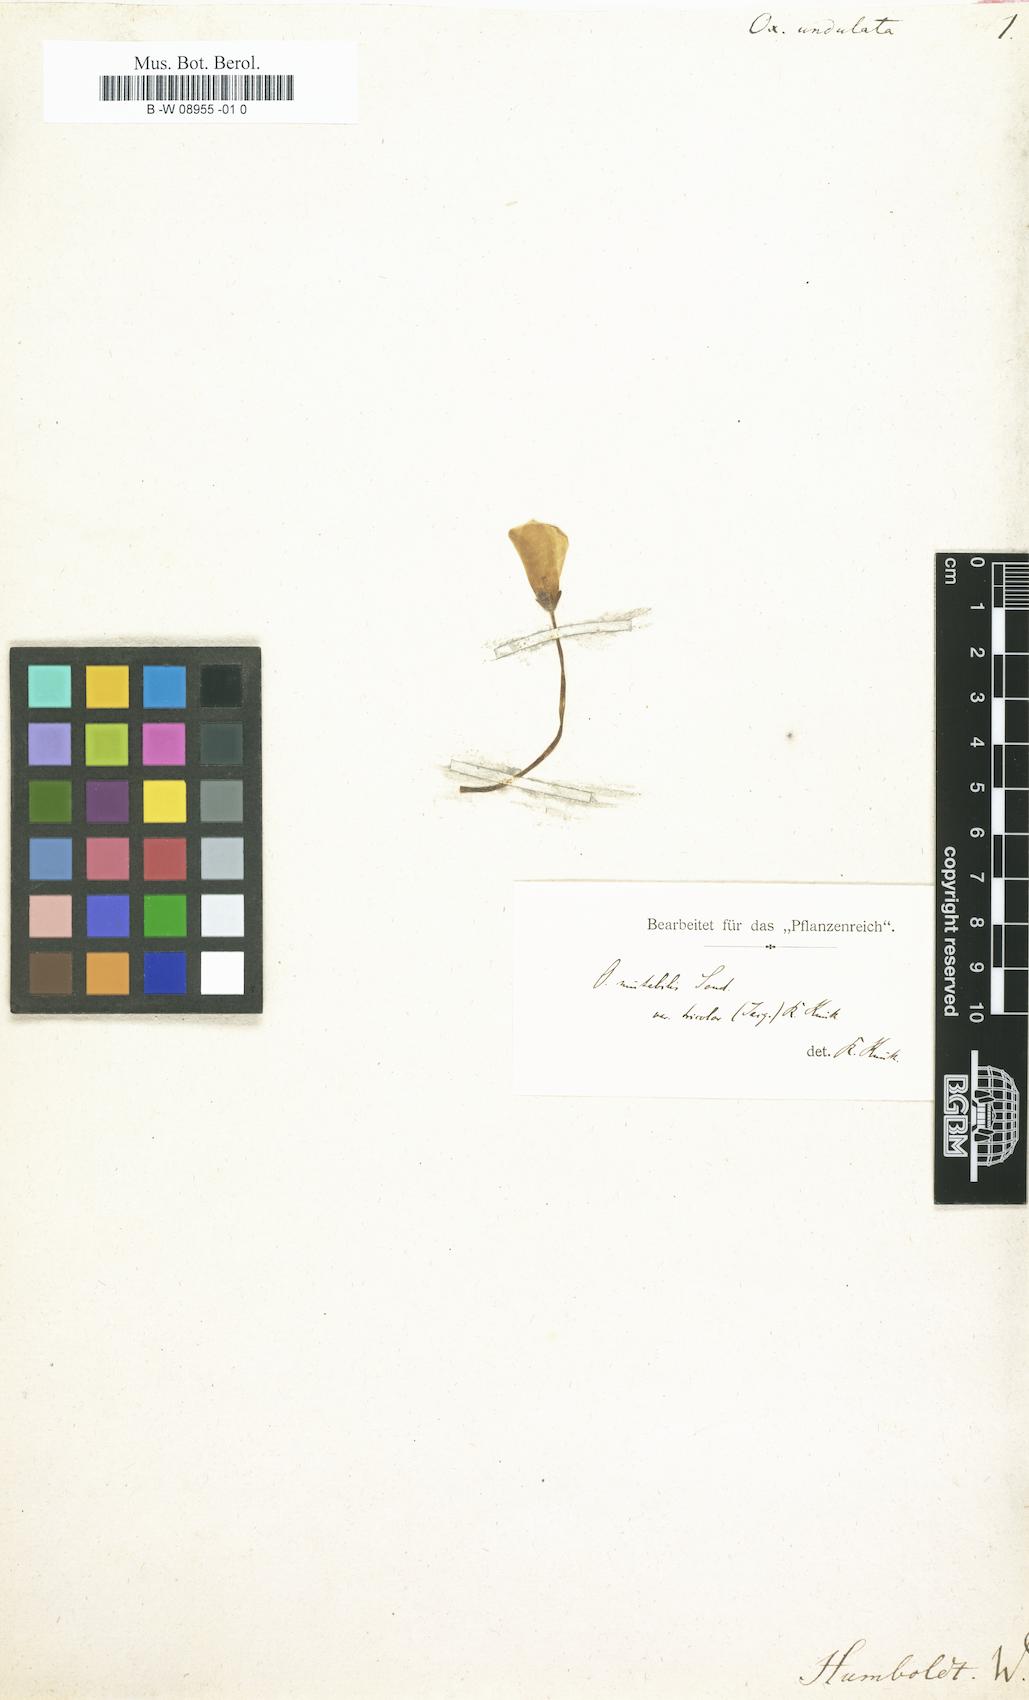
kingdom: Plantae
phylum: Tracheophyta
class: Magnoliopsida
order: Oxalidales
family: Oxalidaceae
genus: Oxalis
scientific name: Oxalis ambigua
